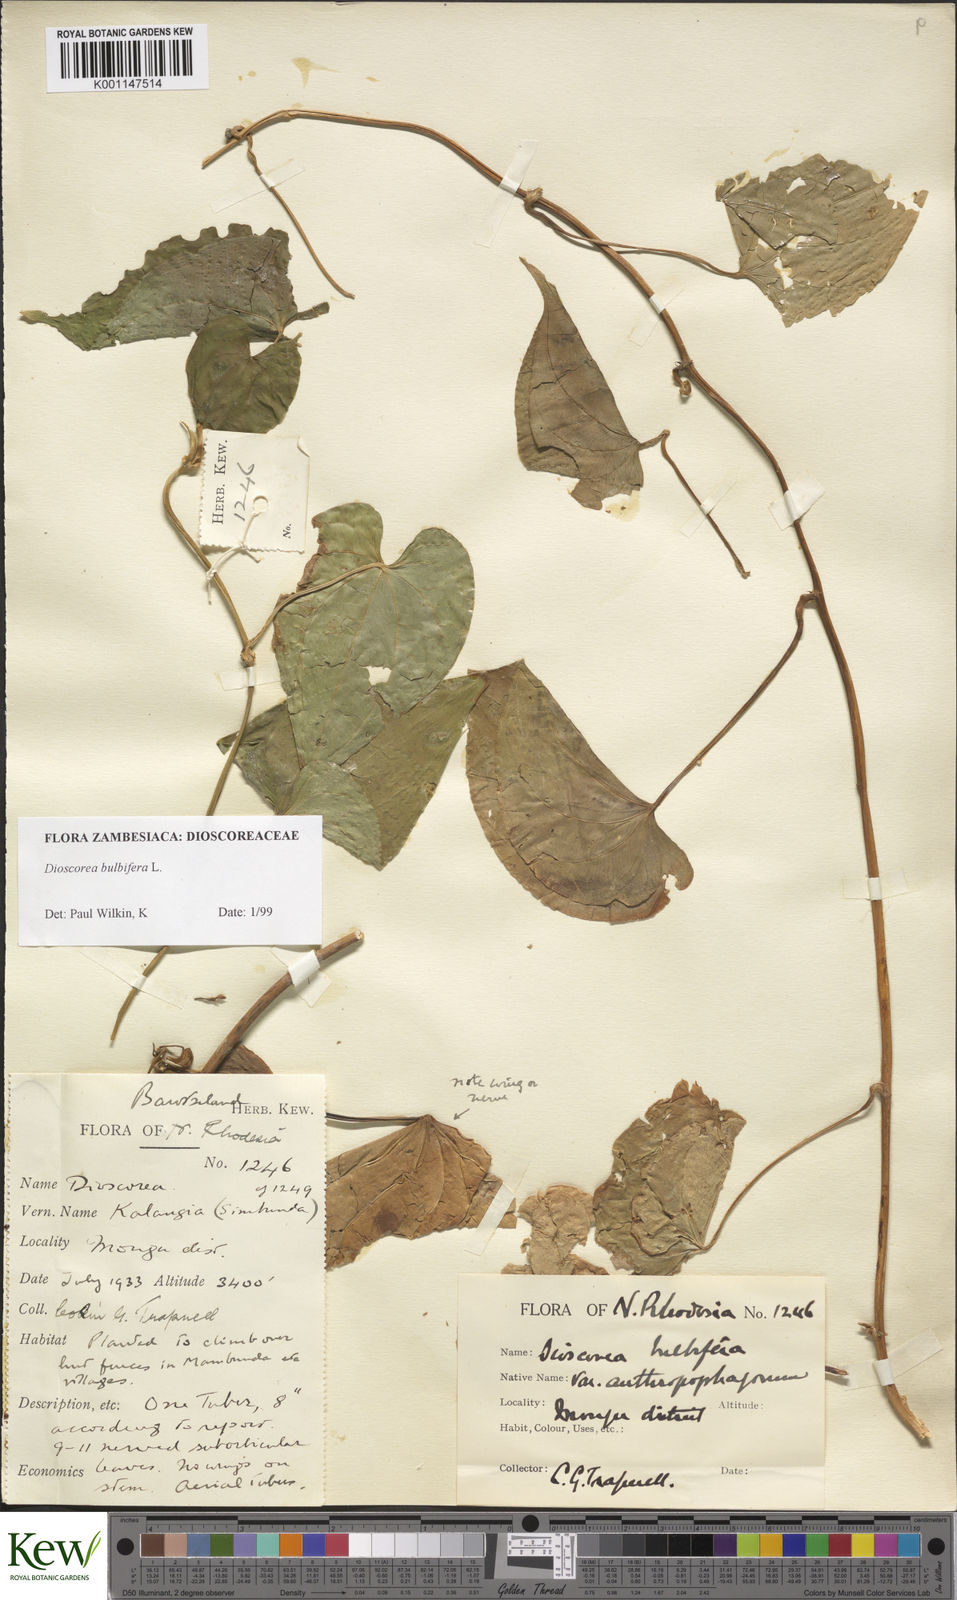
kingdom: Plantae
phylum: Tracheophyta
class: Liliopsida
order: Dioscoreales
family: Dioscoreaceae
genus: Dioscorea
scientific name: Dioscorea bulbifera
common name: Air yam
